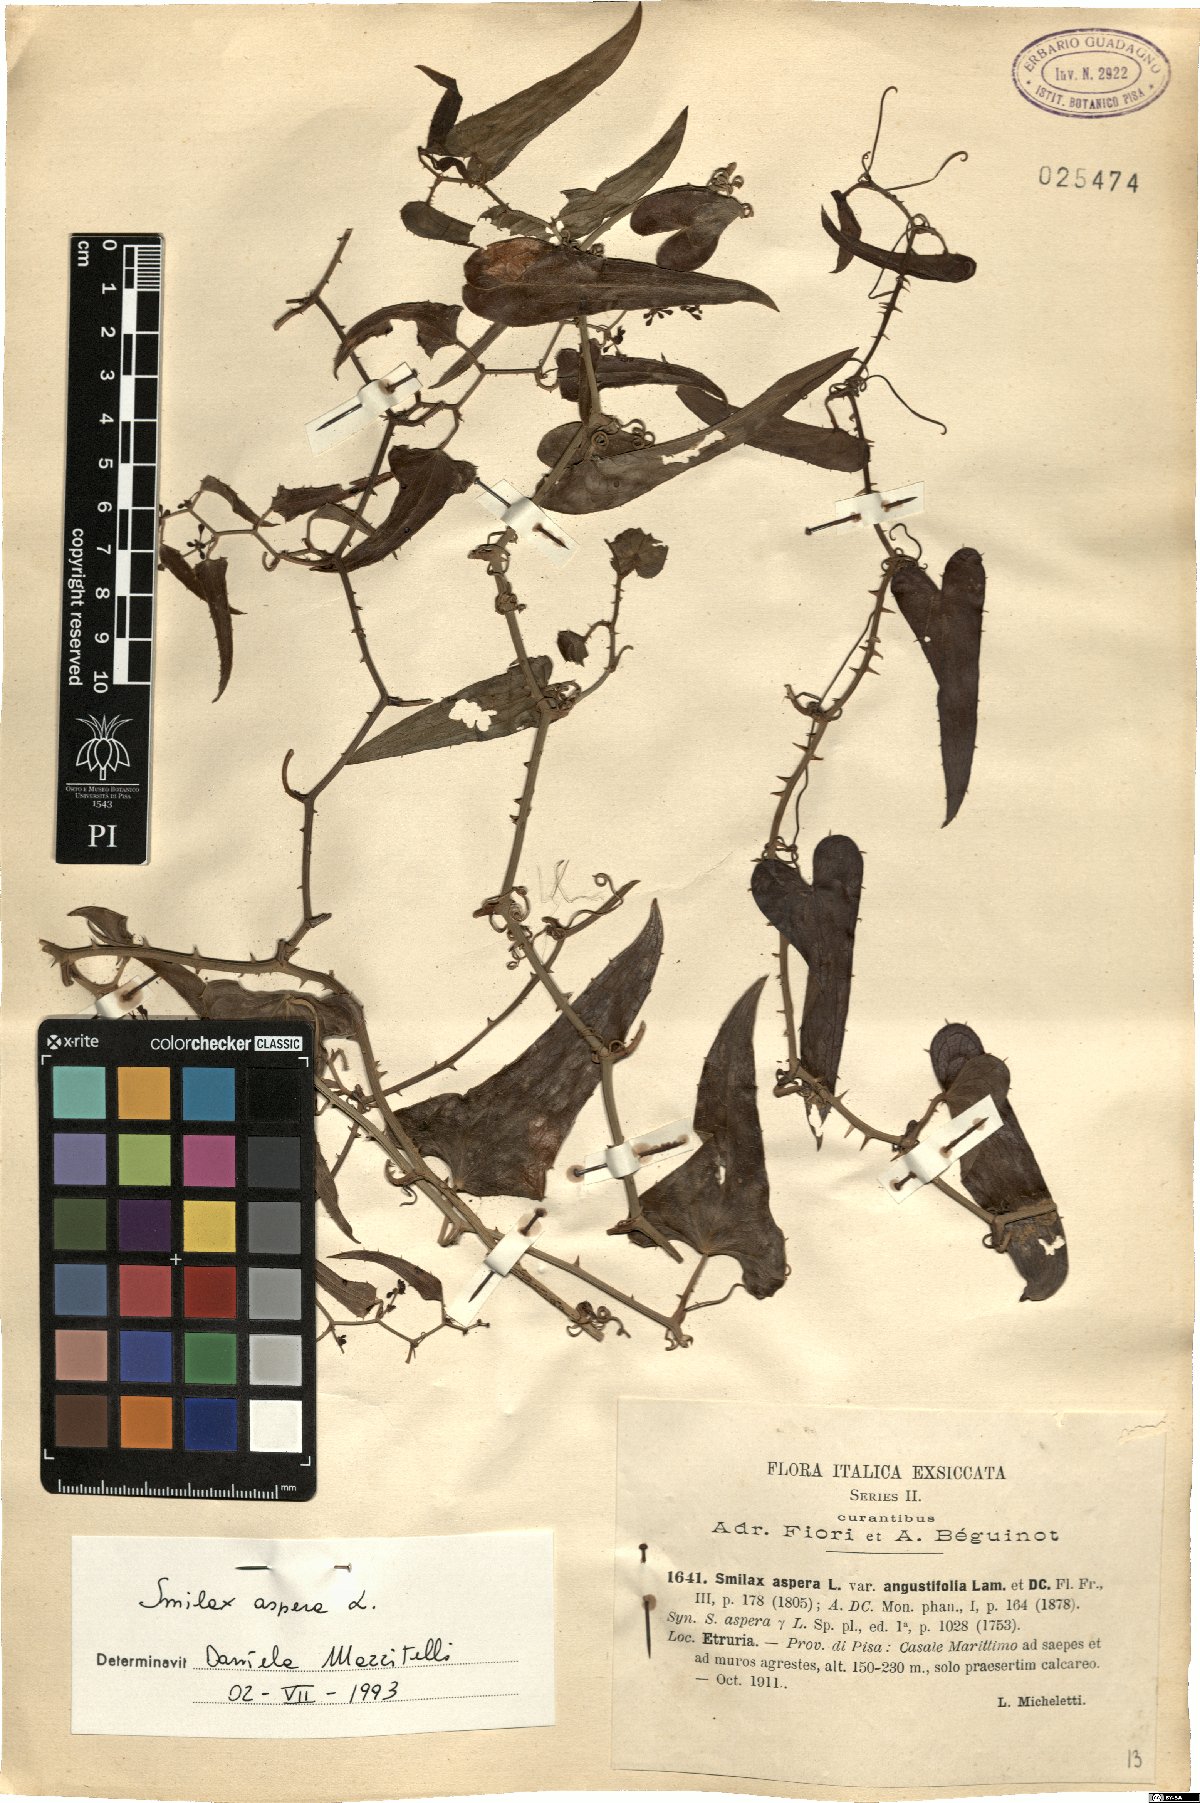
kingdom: Plantae
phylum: Tracheophyta
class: Liliopsida
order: Liliales
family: Smilacaceae
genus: Smilax
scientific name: Smilax aspera
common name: Common smilax
